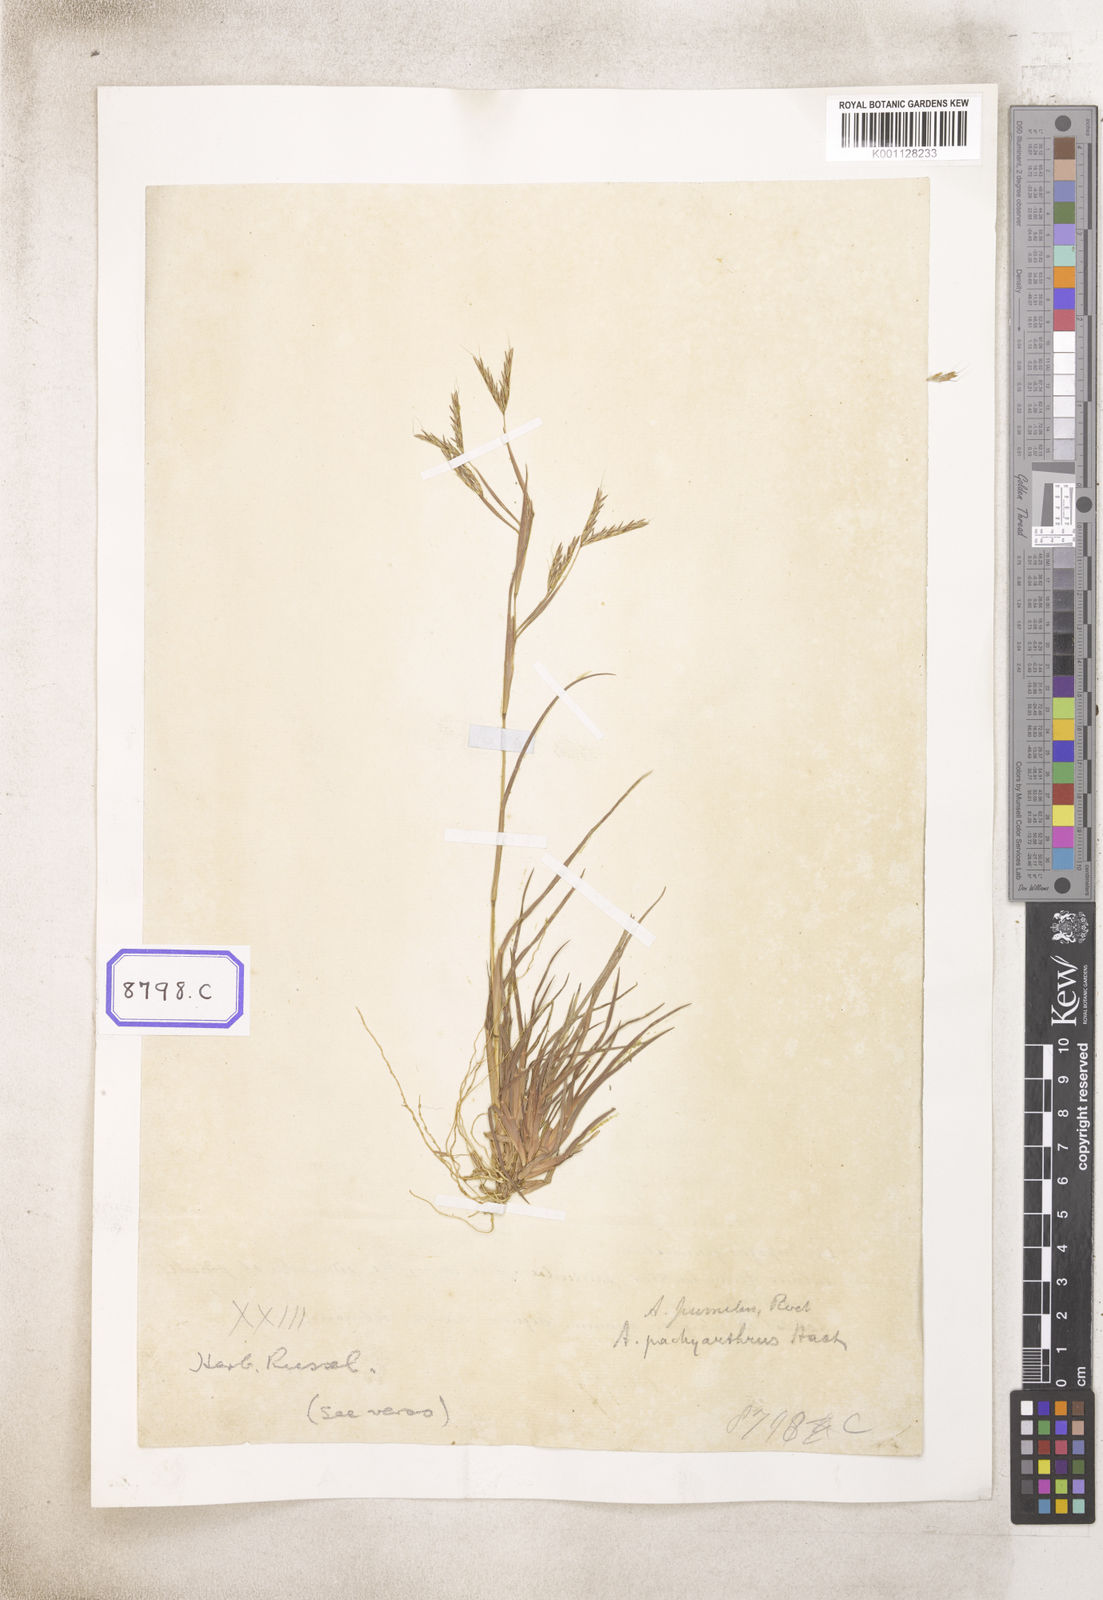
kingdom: Plantae
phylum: Tracheophyta
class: Liliopsida
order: Poales
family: Poaceae
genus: Andropogon
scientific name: Andropogon
